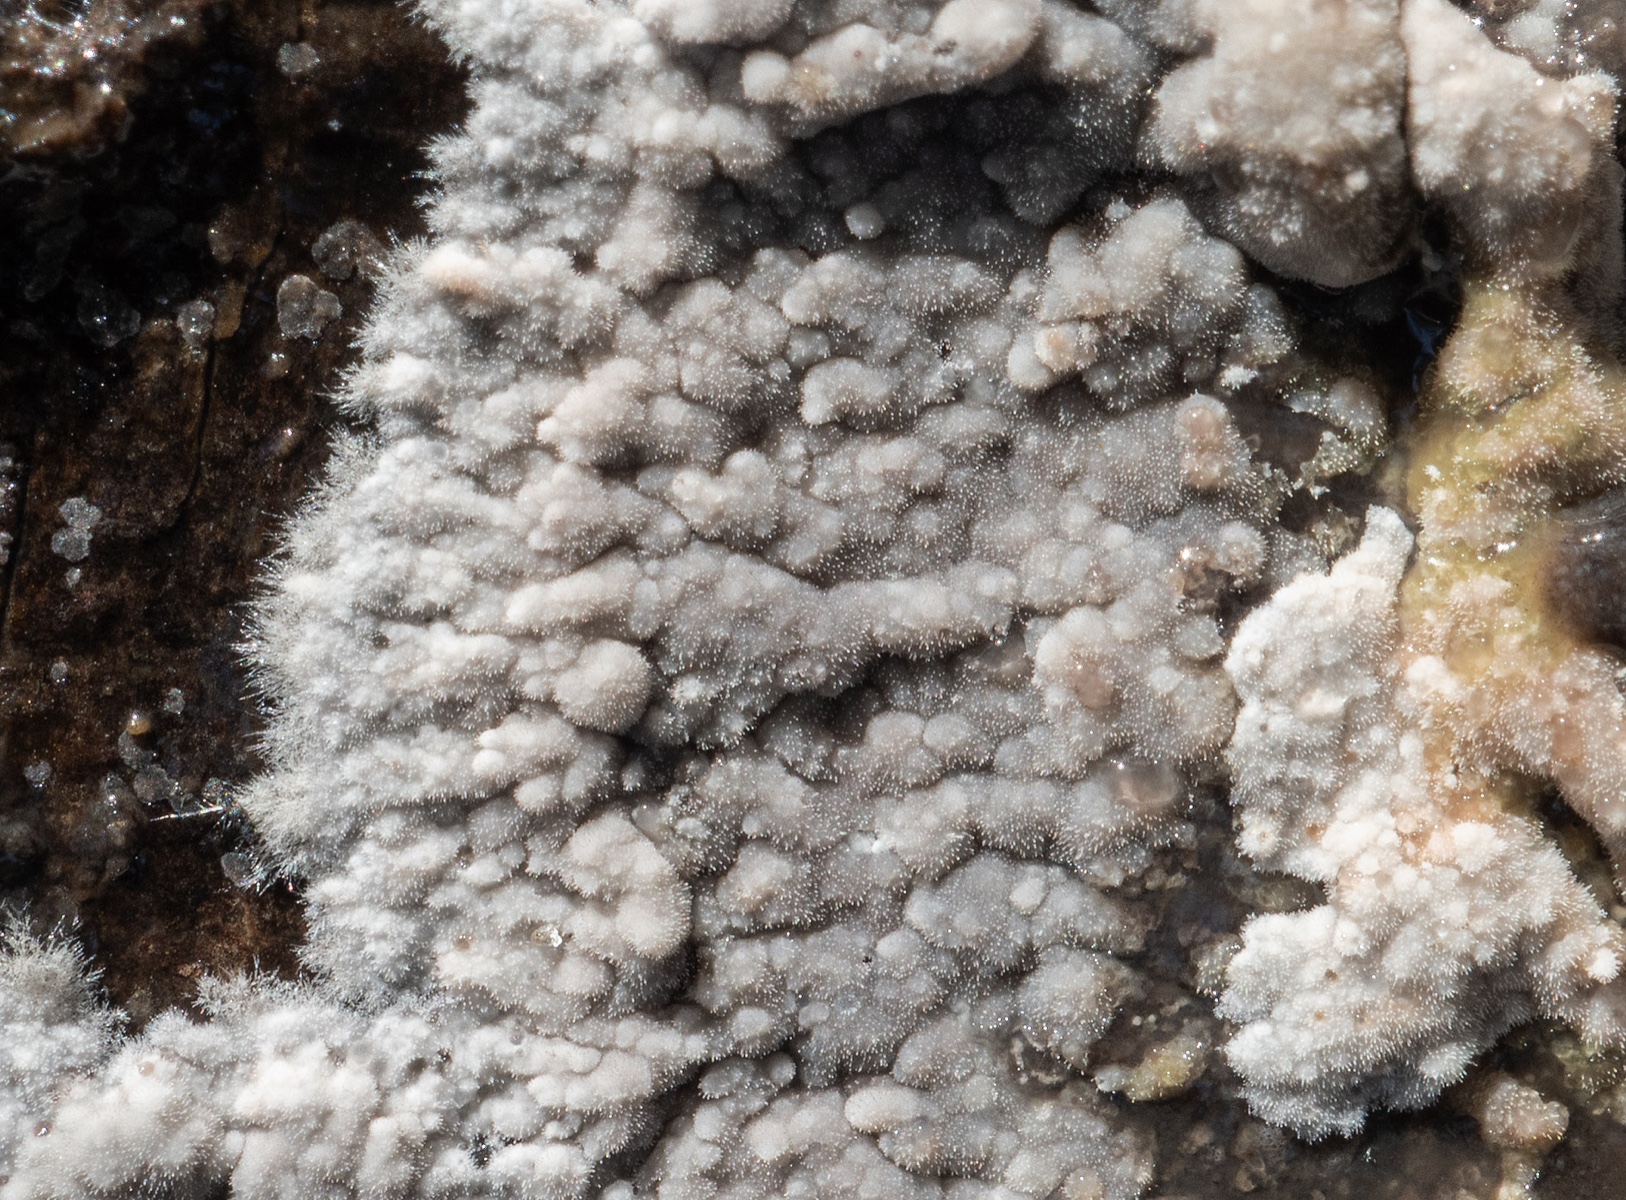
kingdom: Fungi
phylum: Basidiomycota
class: Agaricomycetes
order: Hymenochaetales
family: Rickenellaceae
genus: Odonticium
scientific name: Odonticium septocystidia
